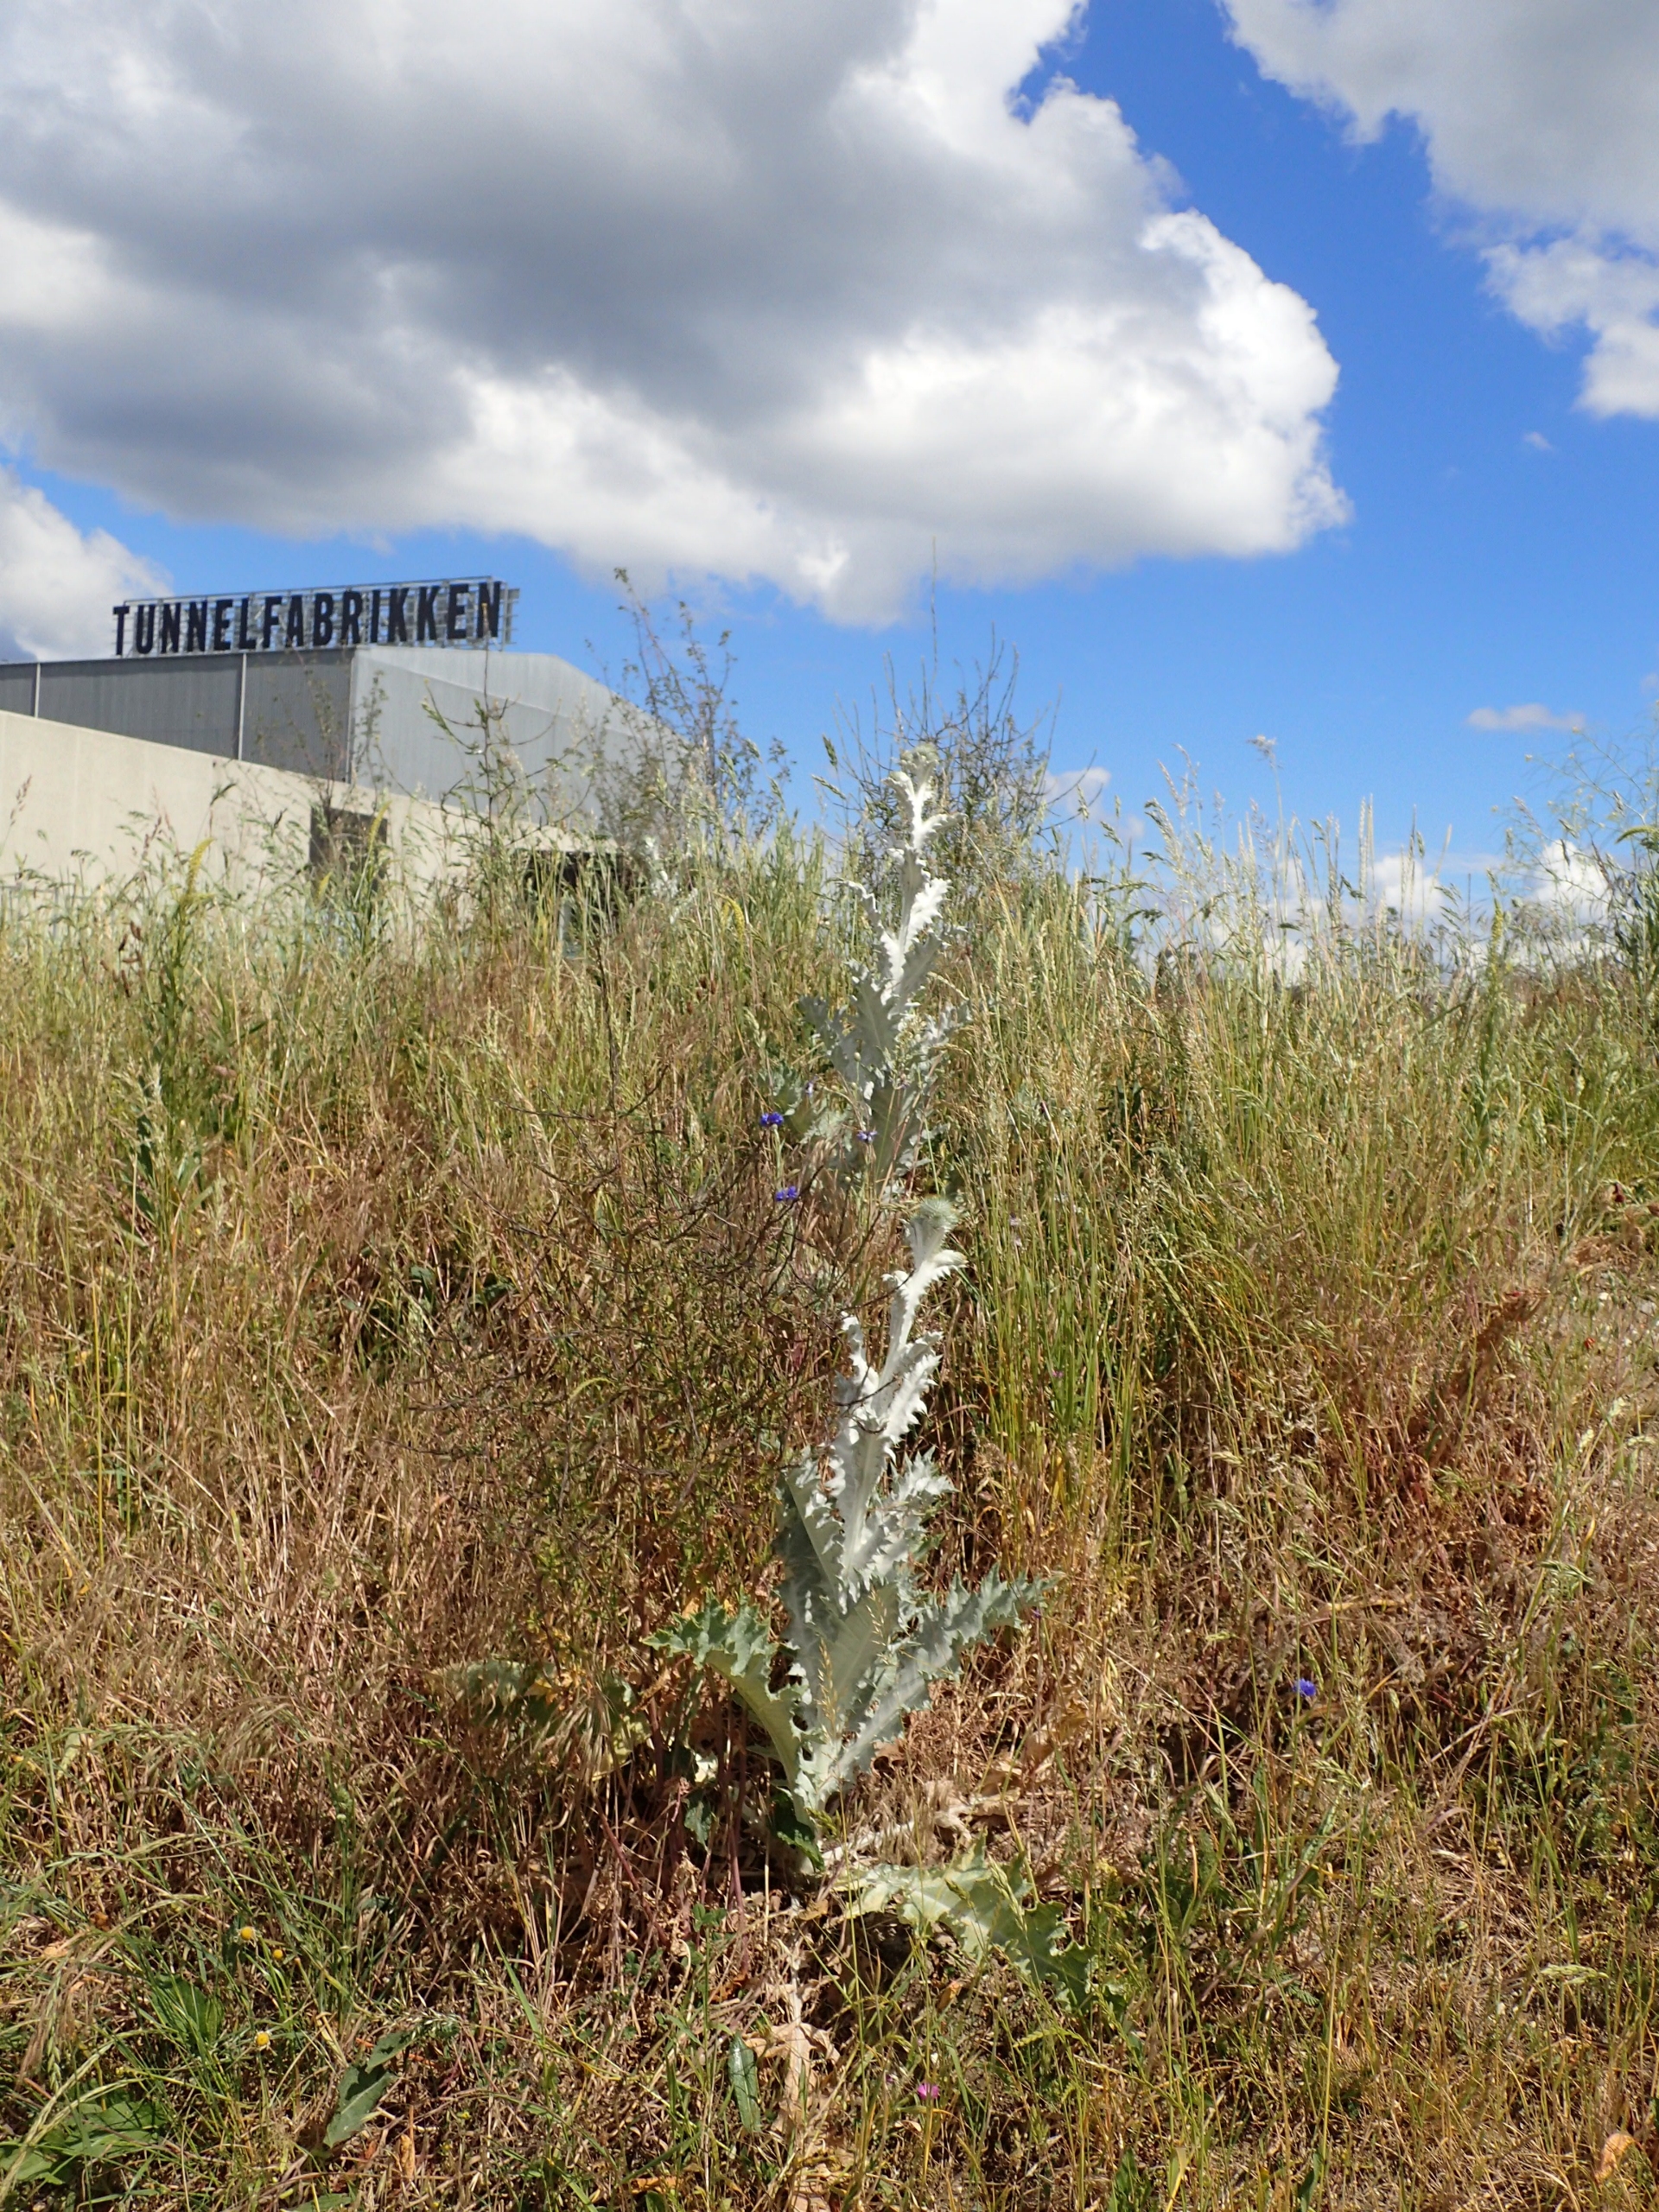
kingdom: Plantae
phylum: Tracheophyta
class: Magnoliopsida
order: Asterales
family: Asteraceae
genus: Onopordum
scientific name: Onopordum acanthium
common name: Æselfoder
